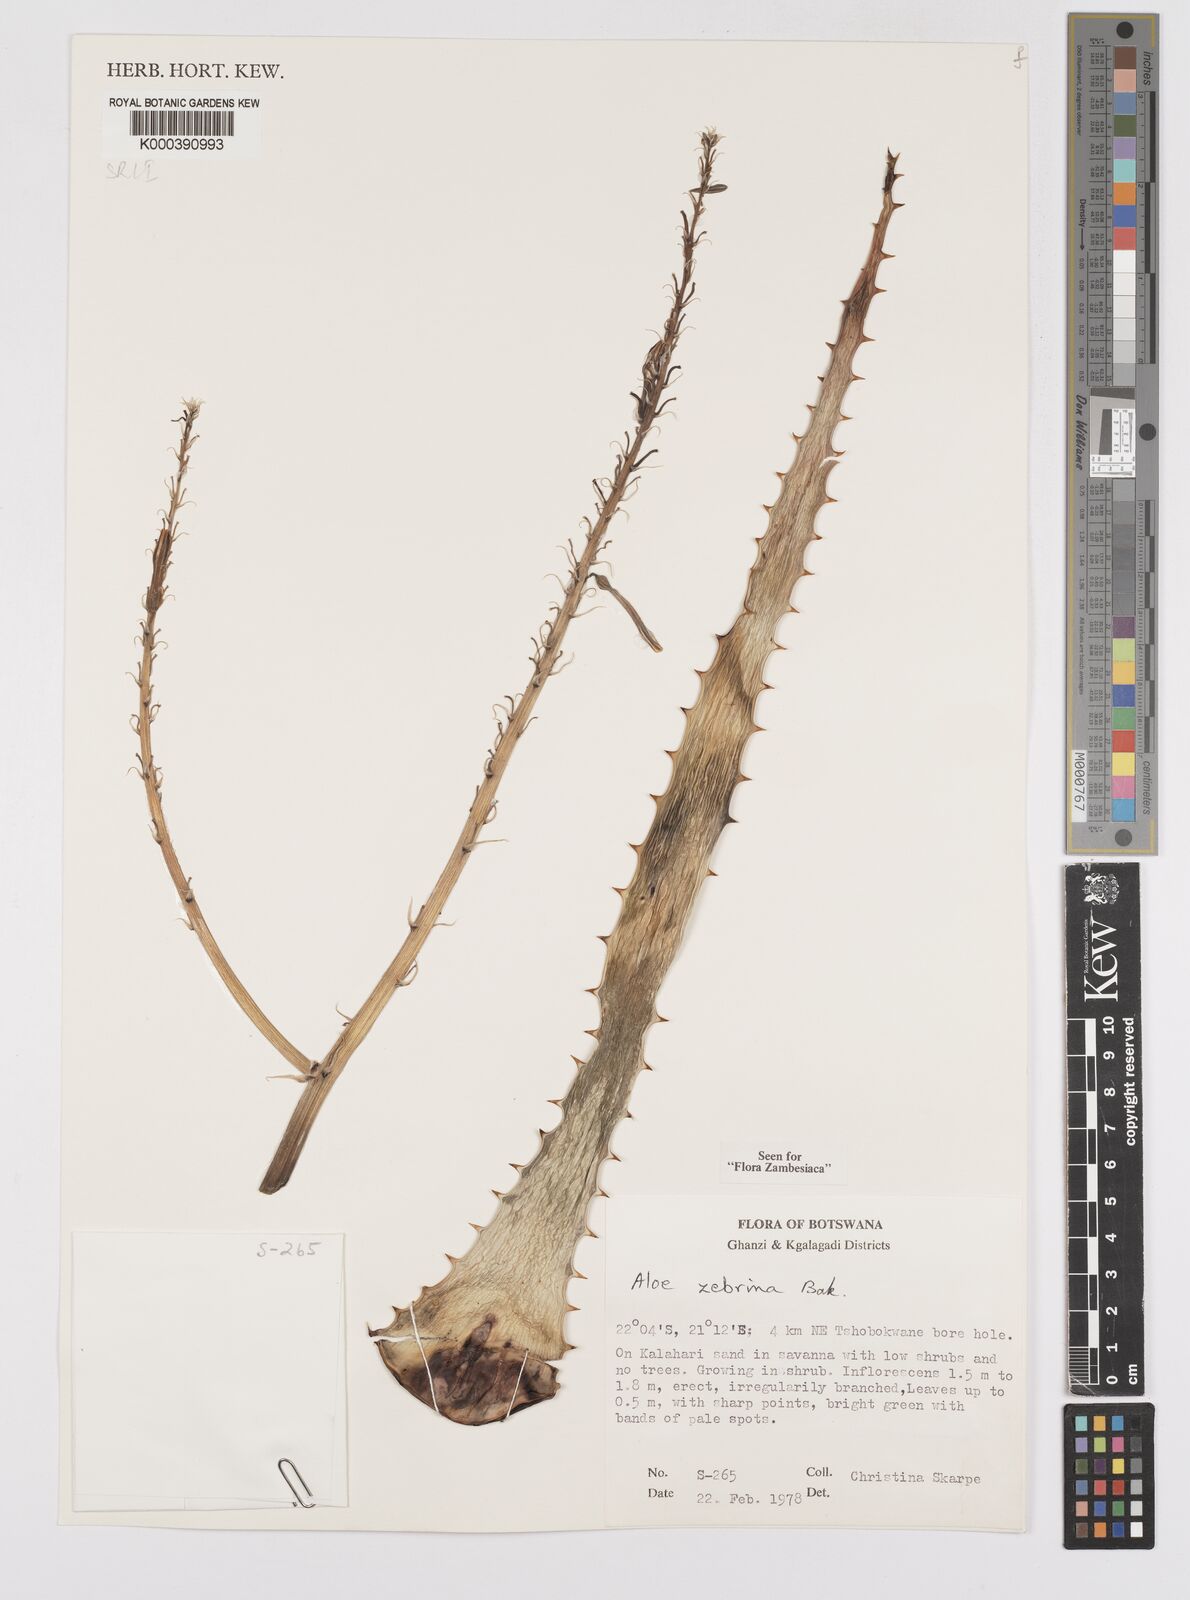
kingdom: Plantae
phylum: Tracheophyta
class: Liliopsida
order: Asparagales
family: Asphodelaceae
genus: Aloe
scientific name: Aloe zebrina
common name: Zebra-leaf aloe
